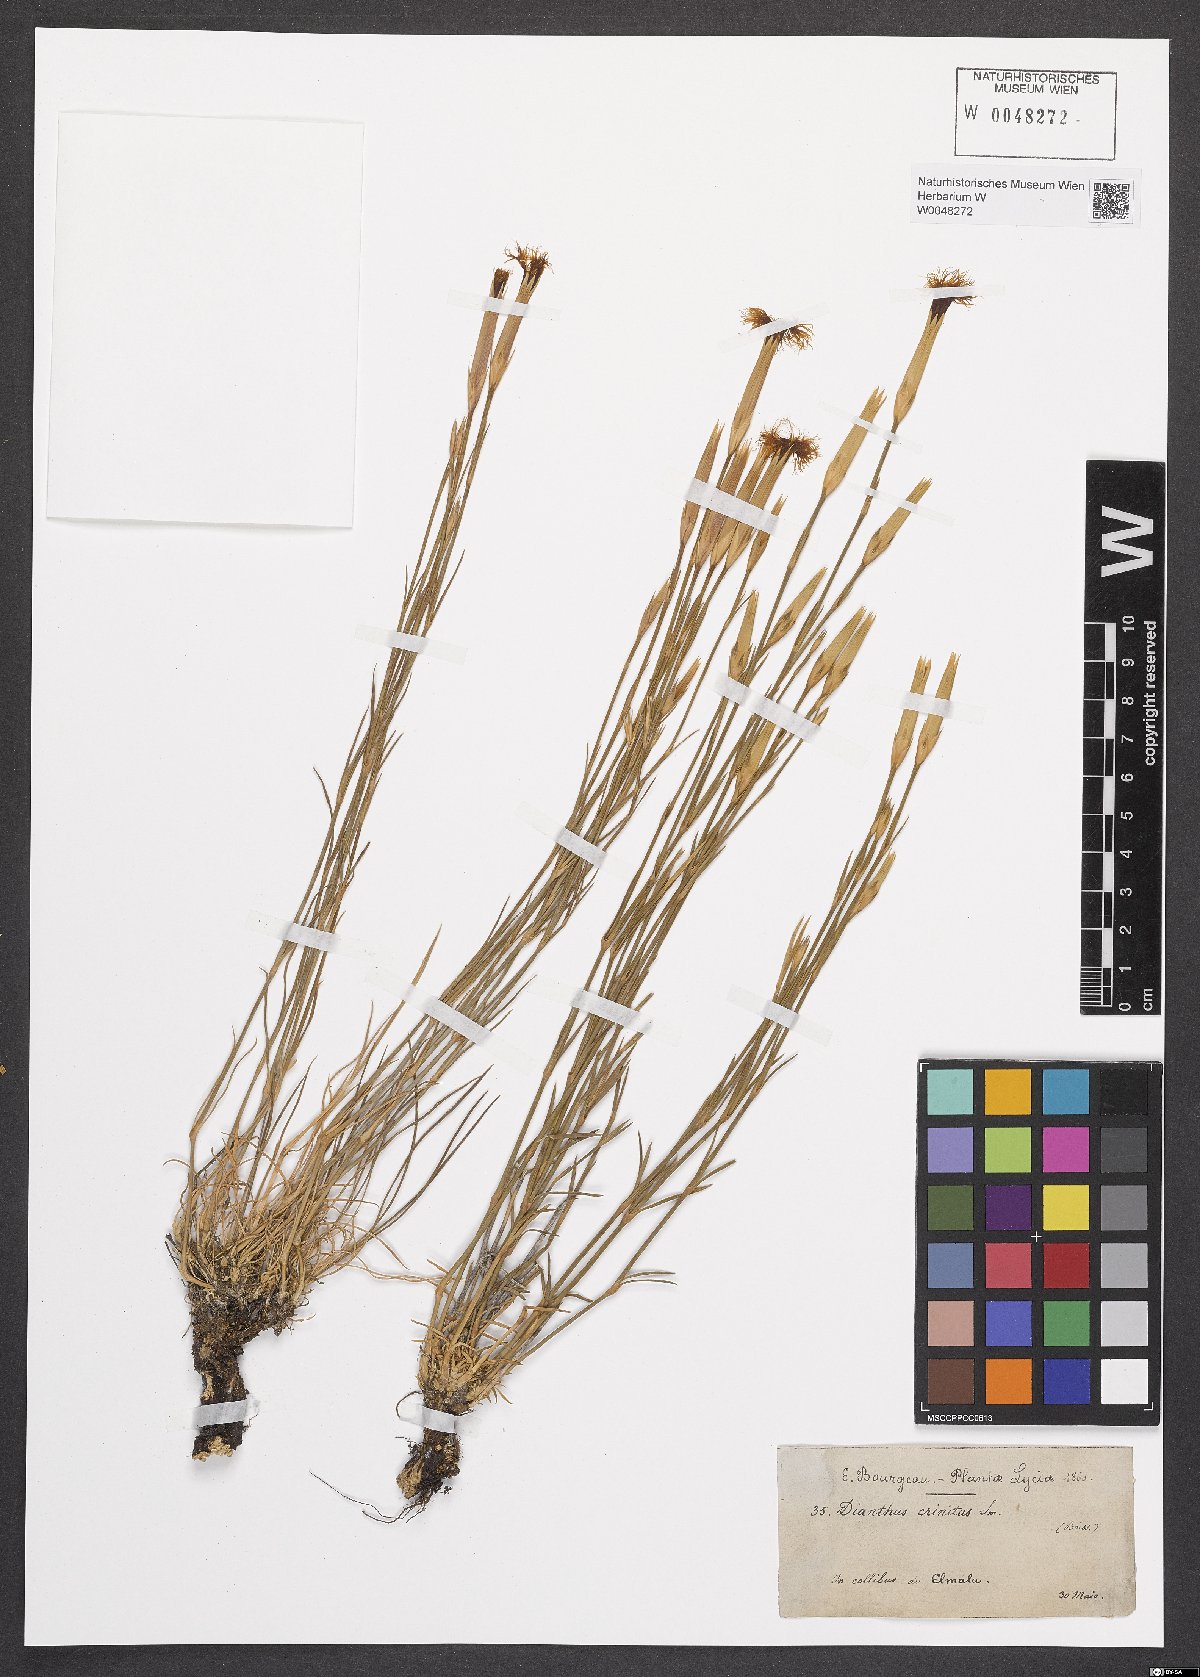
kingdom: Plantae
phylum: Tracheophyta
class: Magnoliopsida
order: Caryophyllales
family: Caryophyllaceae
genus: Dianthus
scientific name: Dianthus crinitus
